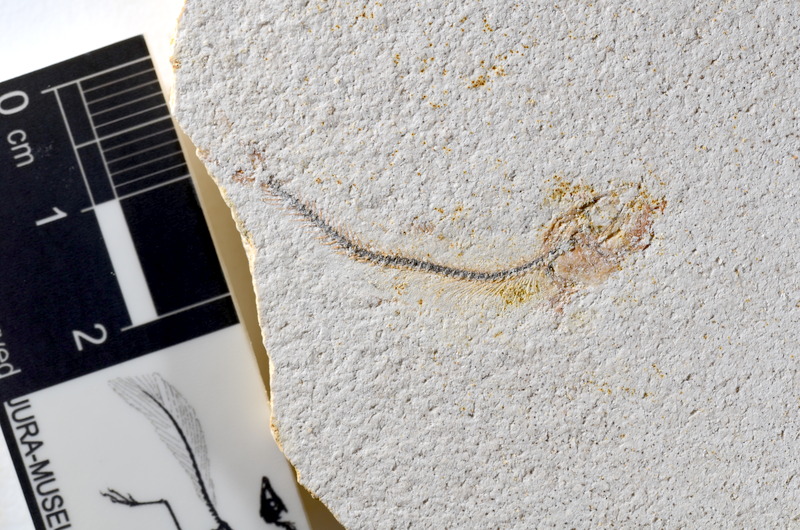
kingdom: Animalia
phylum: Chordata
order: Salmoniformes
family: Orthogonikleithridae
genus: Orthogonikleithrus
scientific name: Orthogonikleithrus hoelli
